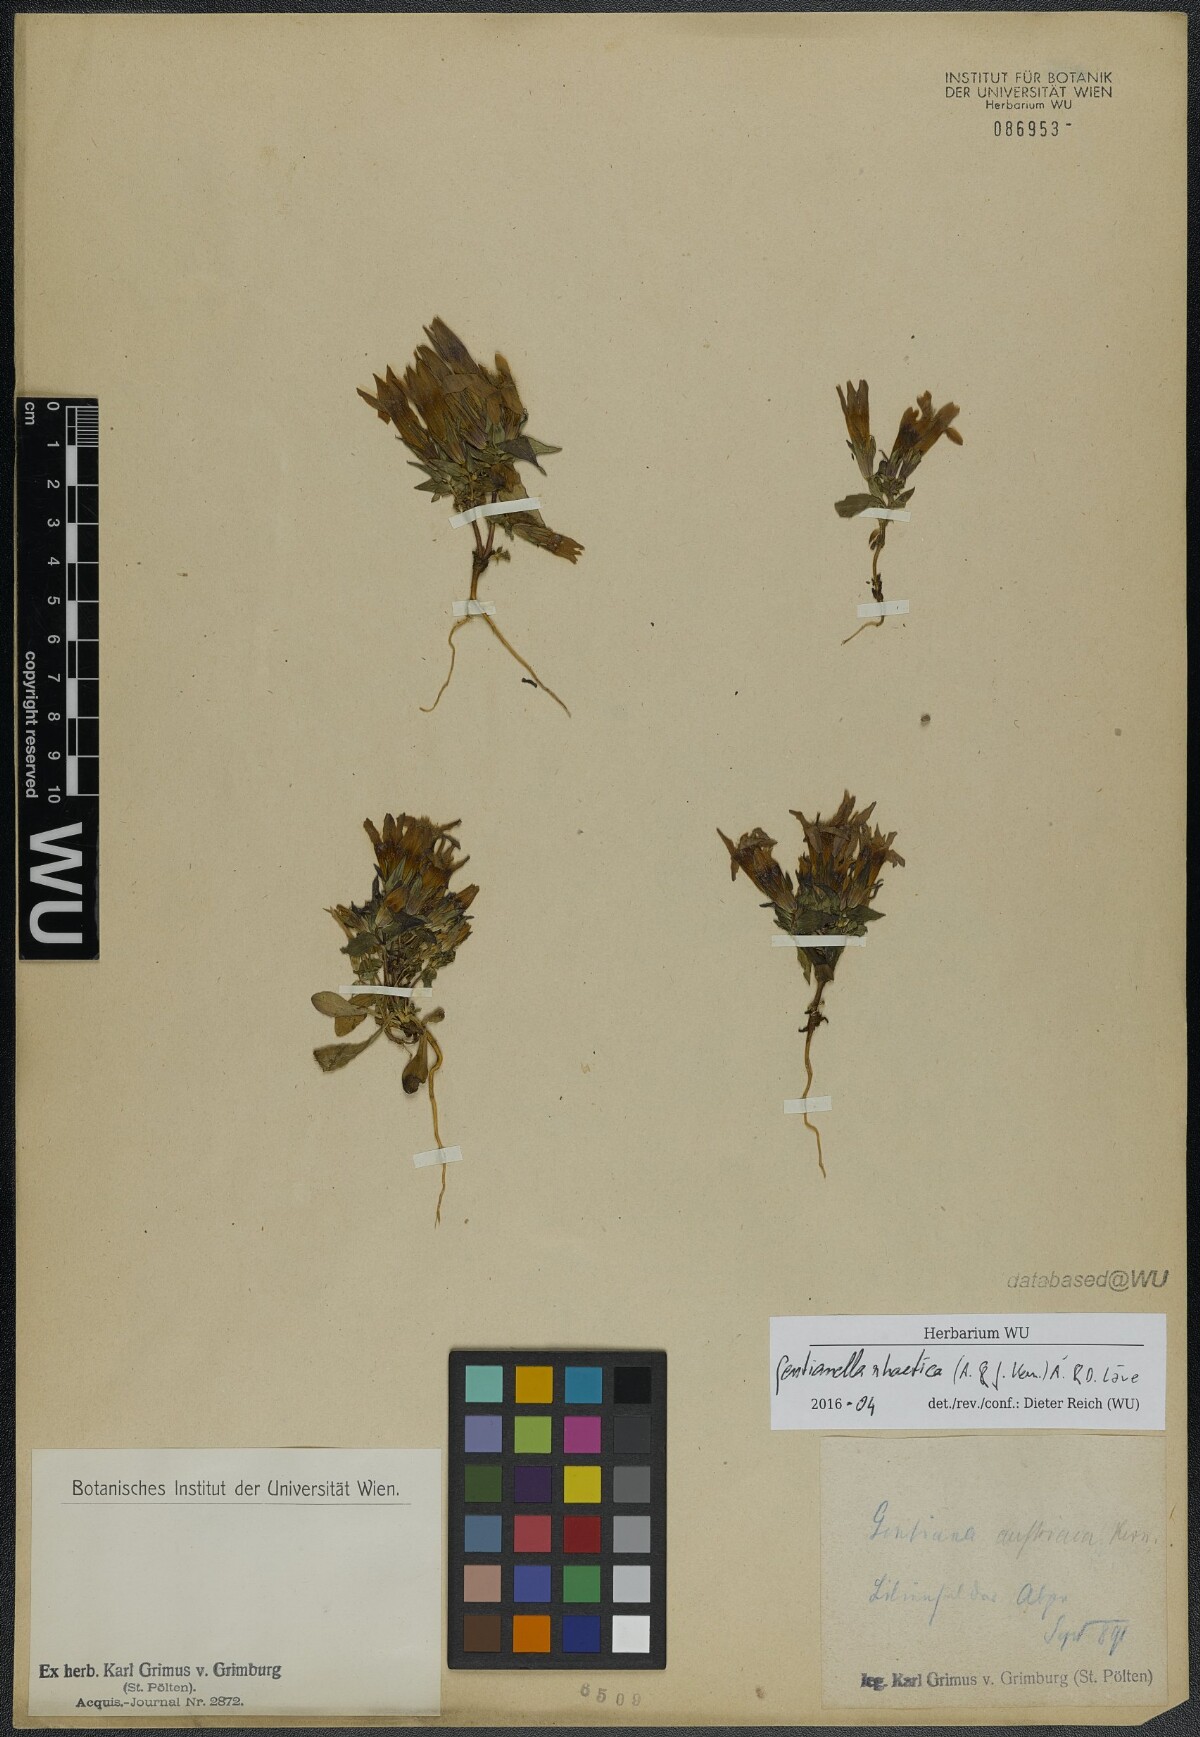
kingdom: Plantae
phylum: Tracheophyta
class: Magnoliopsida
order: Gentianales
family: Gentianaceae
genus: Gentianella
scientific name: Gentianella rhaetica
